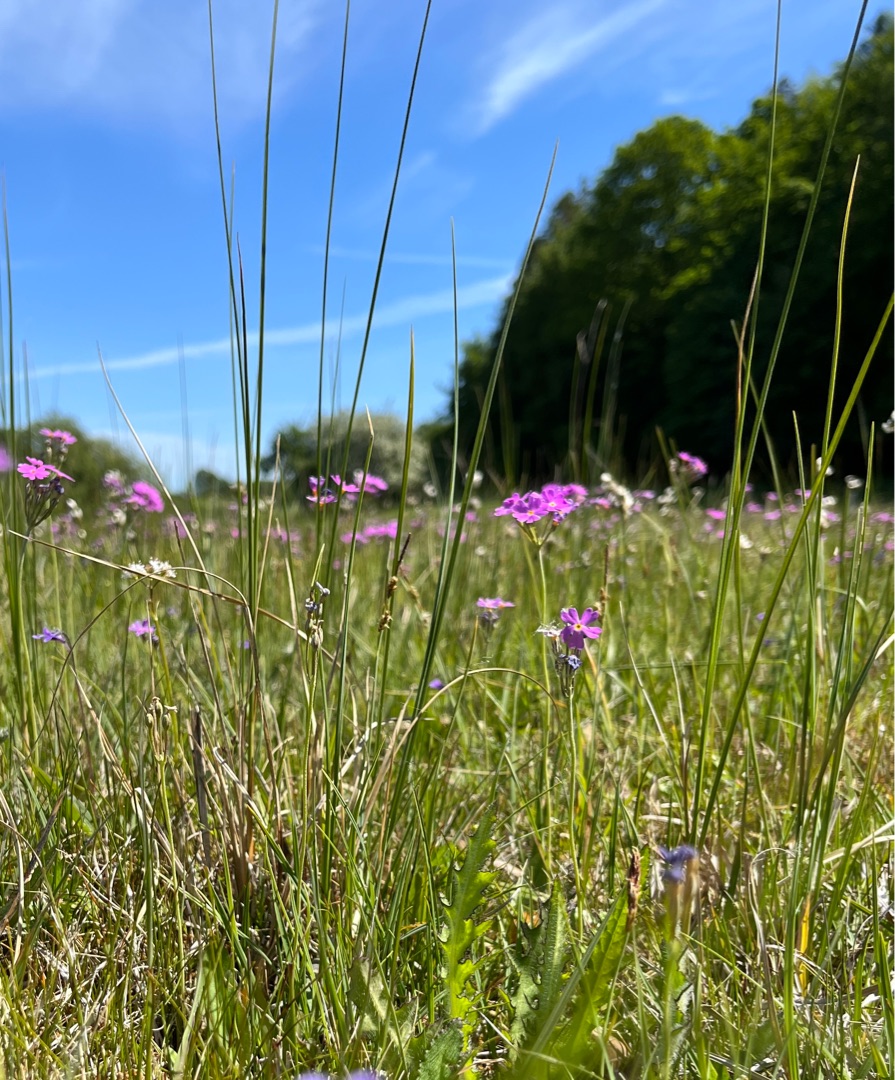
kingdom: Plantae
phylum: Tracheophyta
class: Magnoliopsida
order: Ericales
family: Primulaceae
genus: Primula
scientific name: Primula farinosa
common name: Melet kodriver
